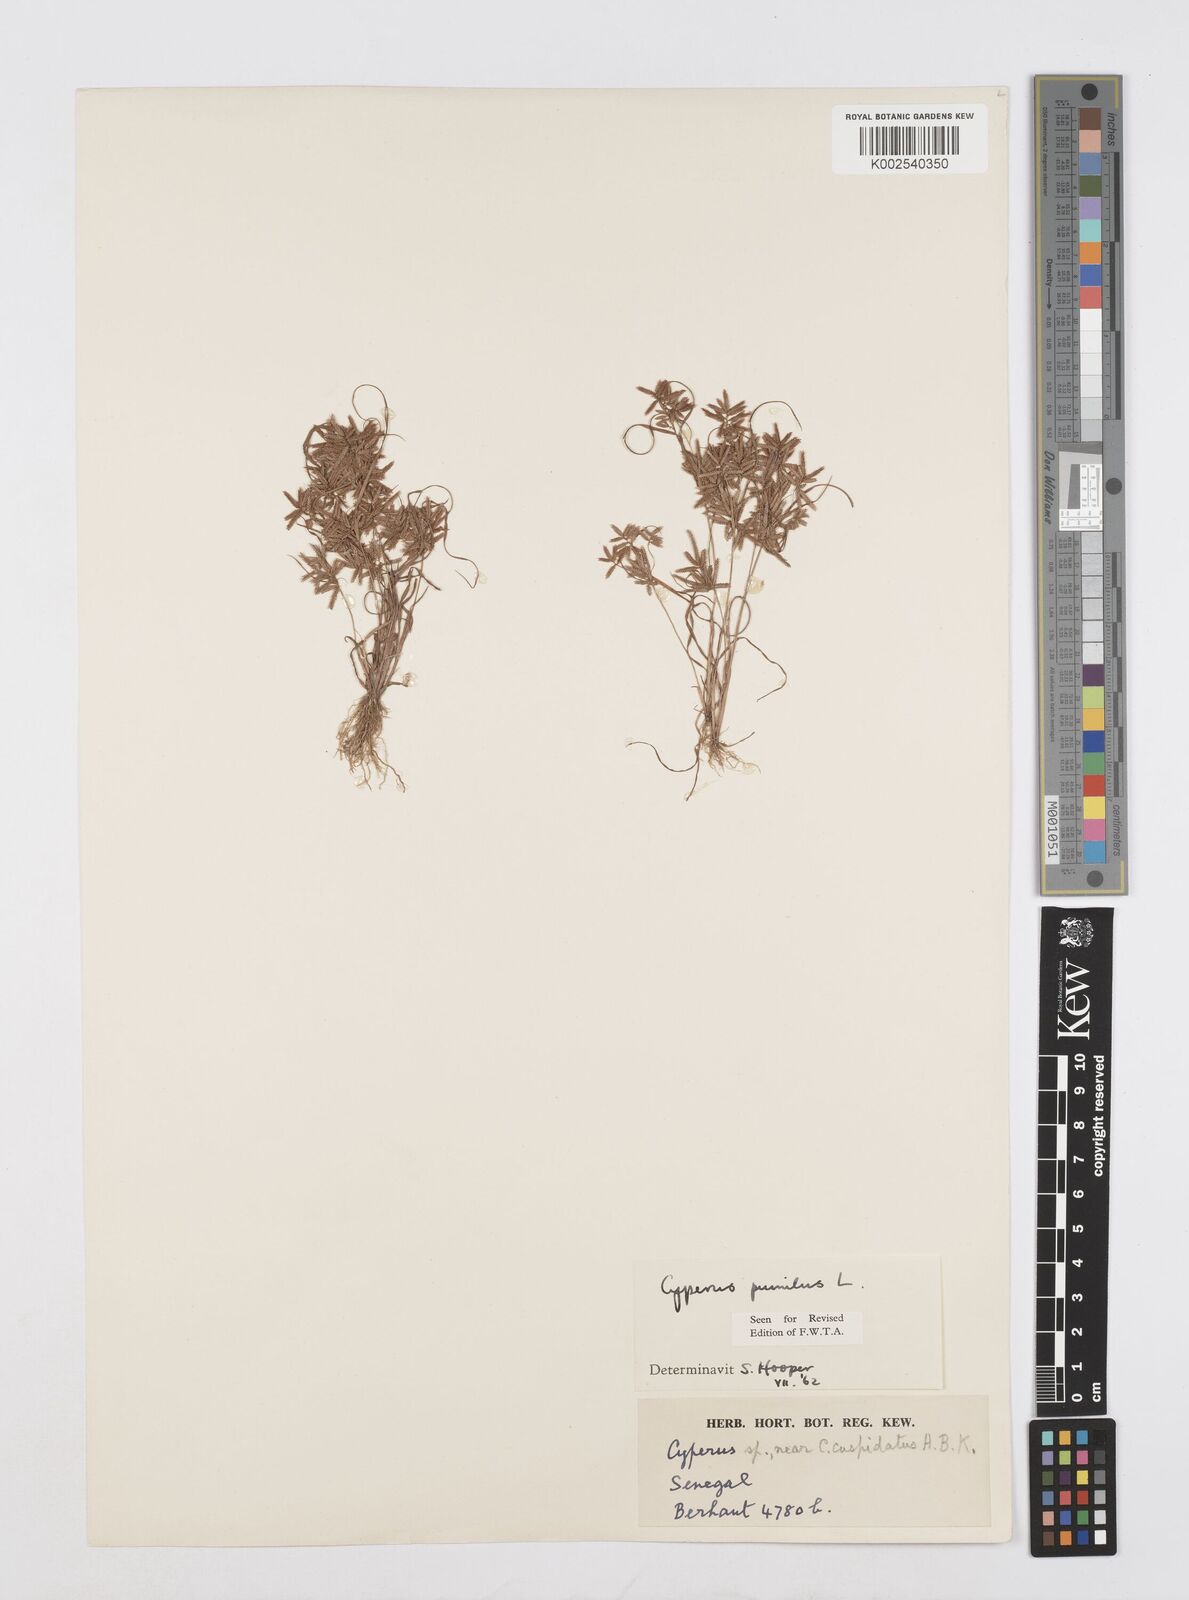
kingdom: Plantae
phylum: Tracheophyta
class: Liliopsida
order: Poales
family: Cyperaceae
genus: Cyperus
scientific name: Cyperus pumilus
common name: Low flatsedge
